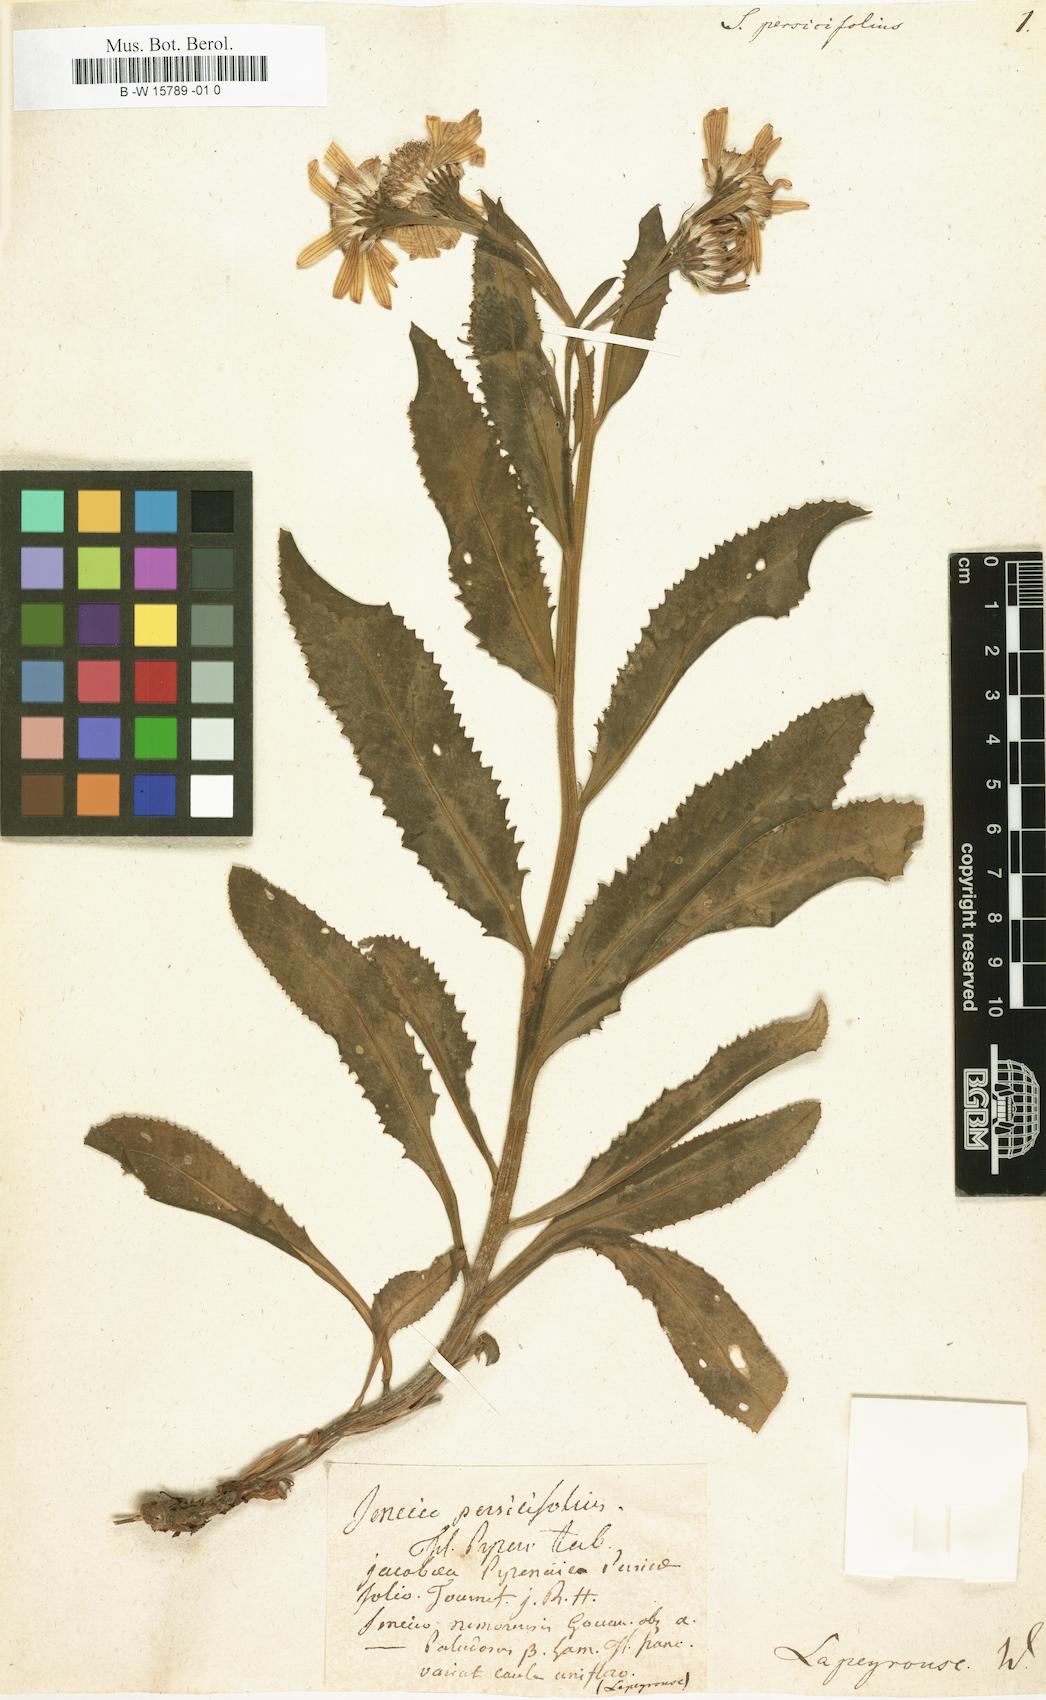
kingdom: Plantae
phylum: Tracheophyta
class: Magnoliopsida
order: Asterales
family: Asteraceae
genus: Senecio
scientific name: Senecio persicifolius
